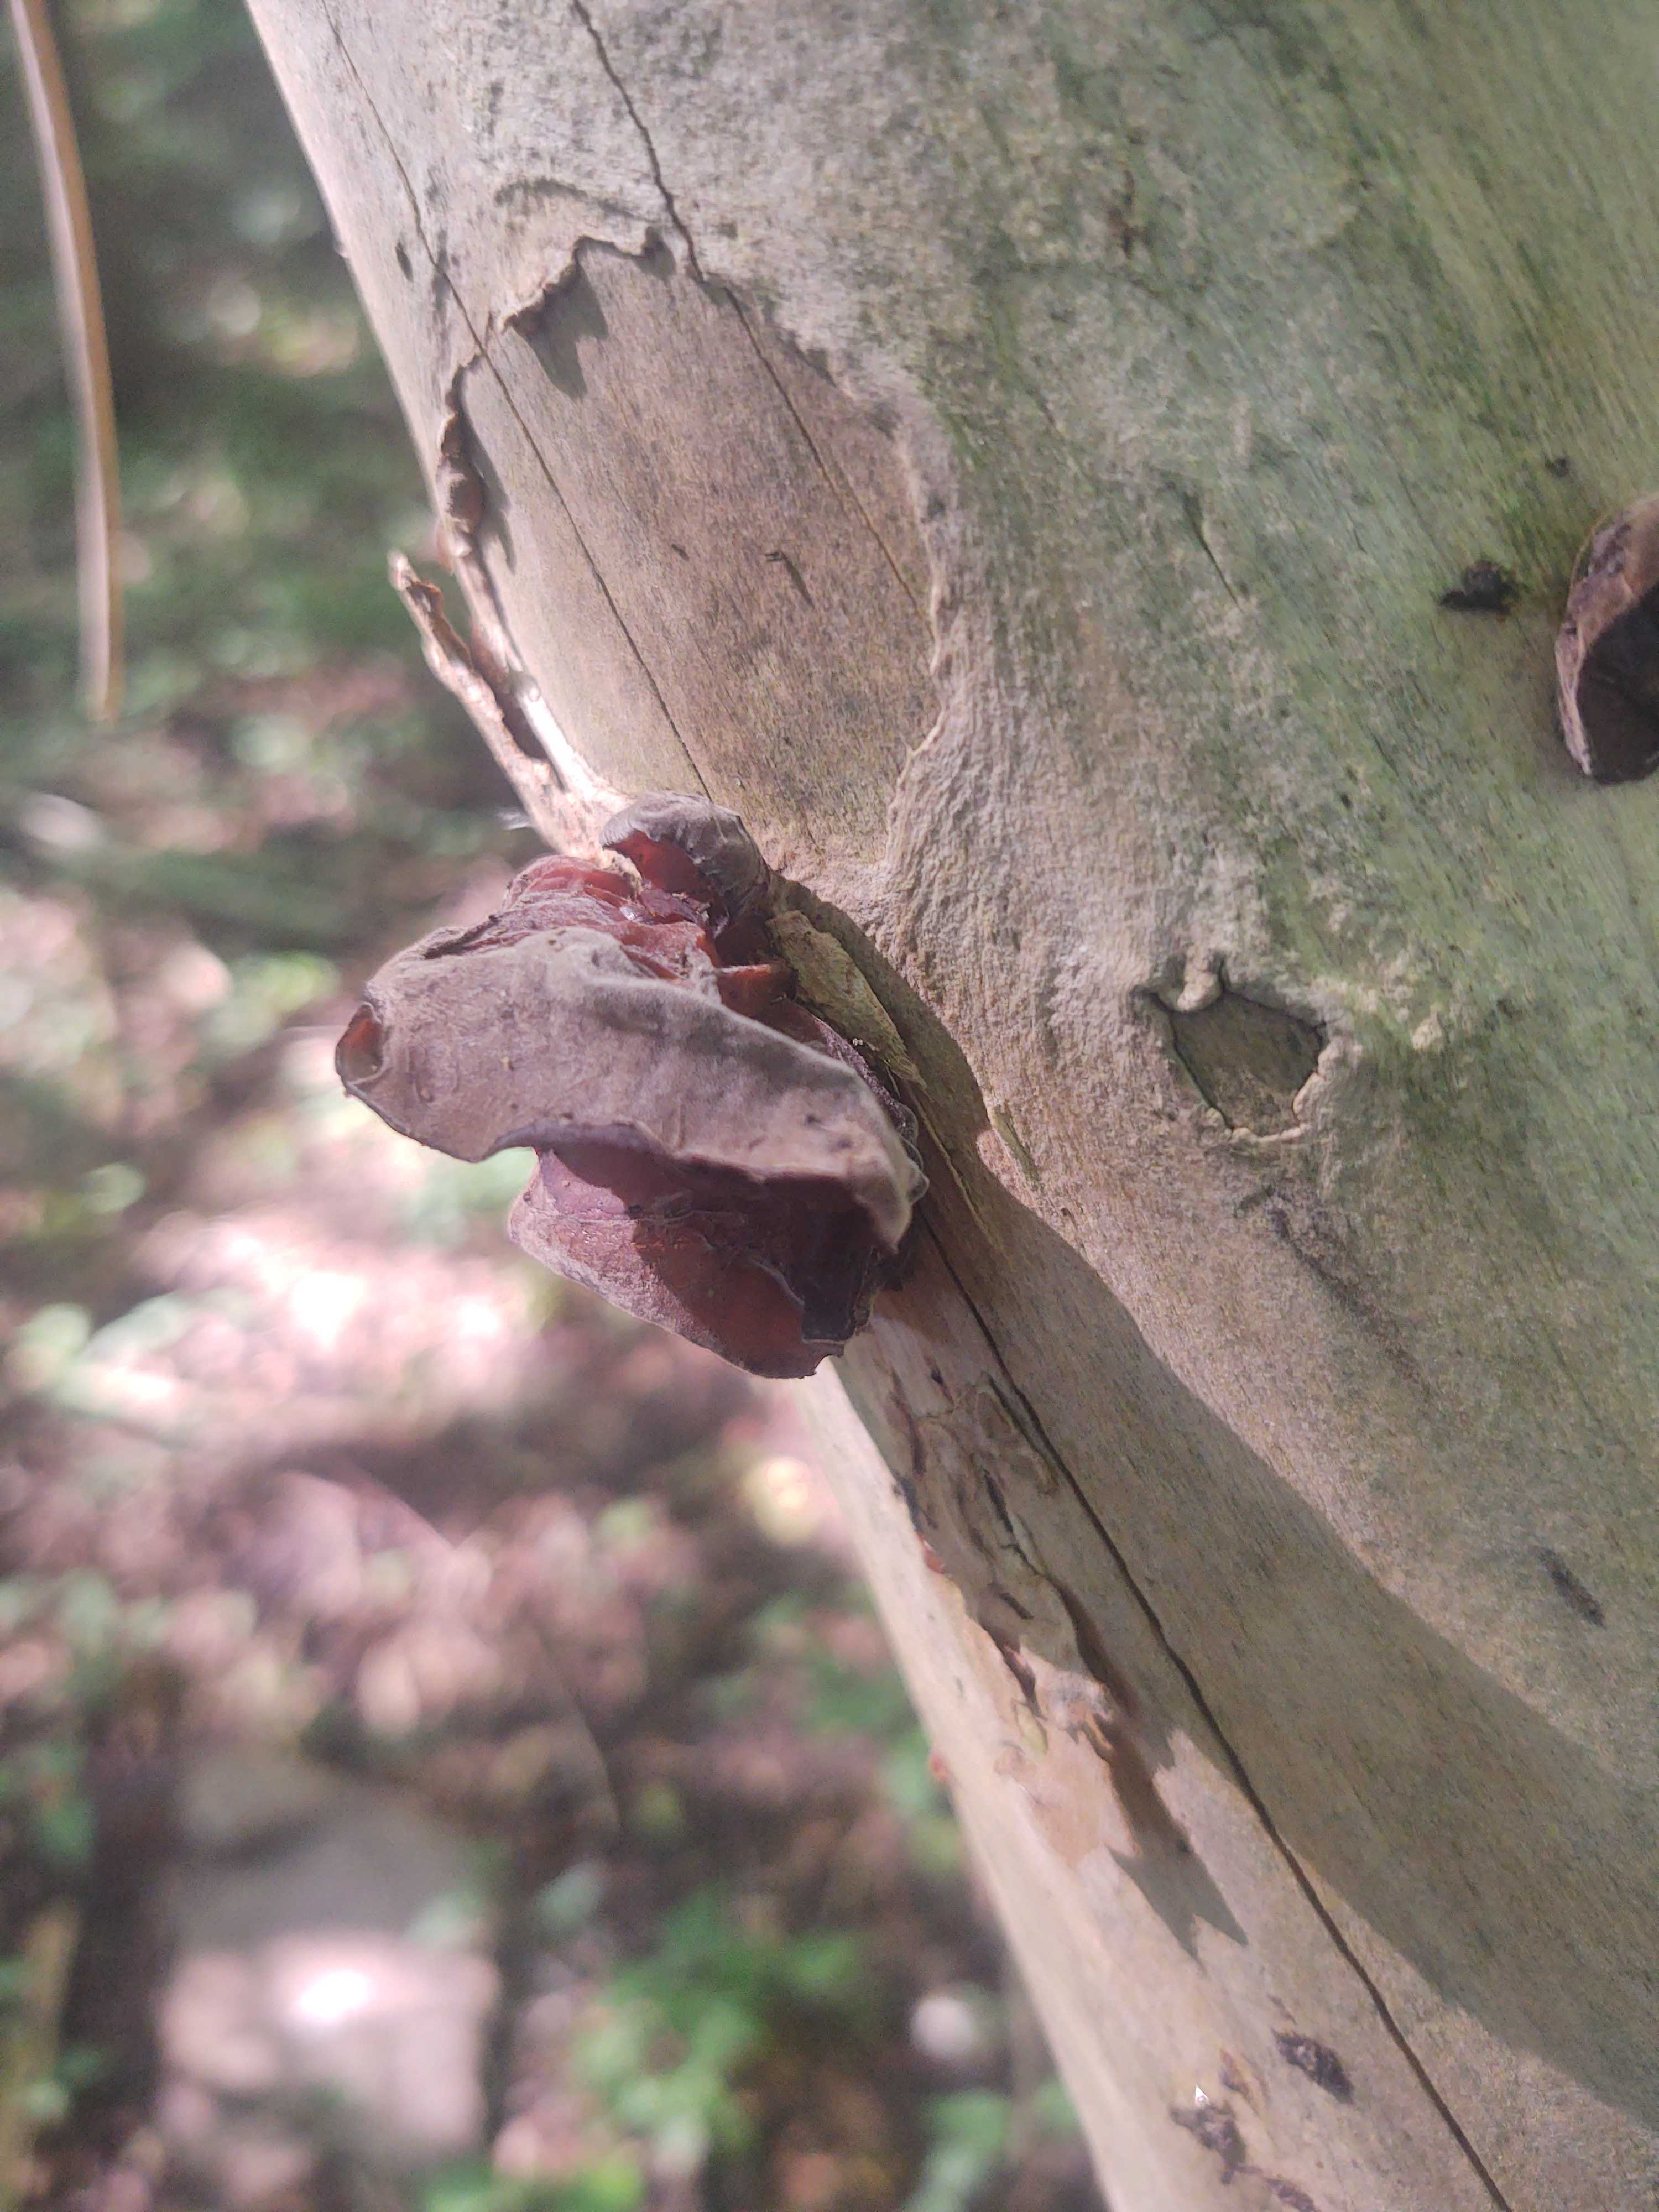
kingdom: Fungi
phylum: Basidiomycota
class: Agaricomycetes
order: Auriculariales
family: Auriculariaceae
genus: Auricularia
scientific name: Auricularia auricula-judae
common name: almindelig judasøre
